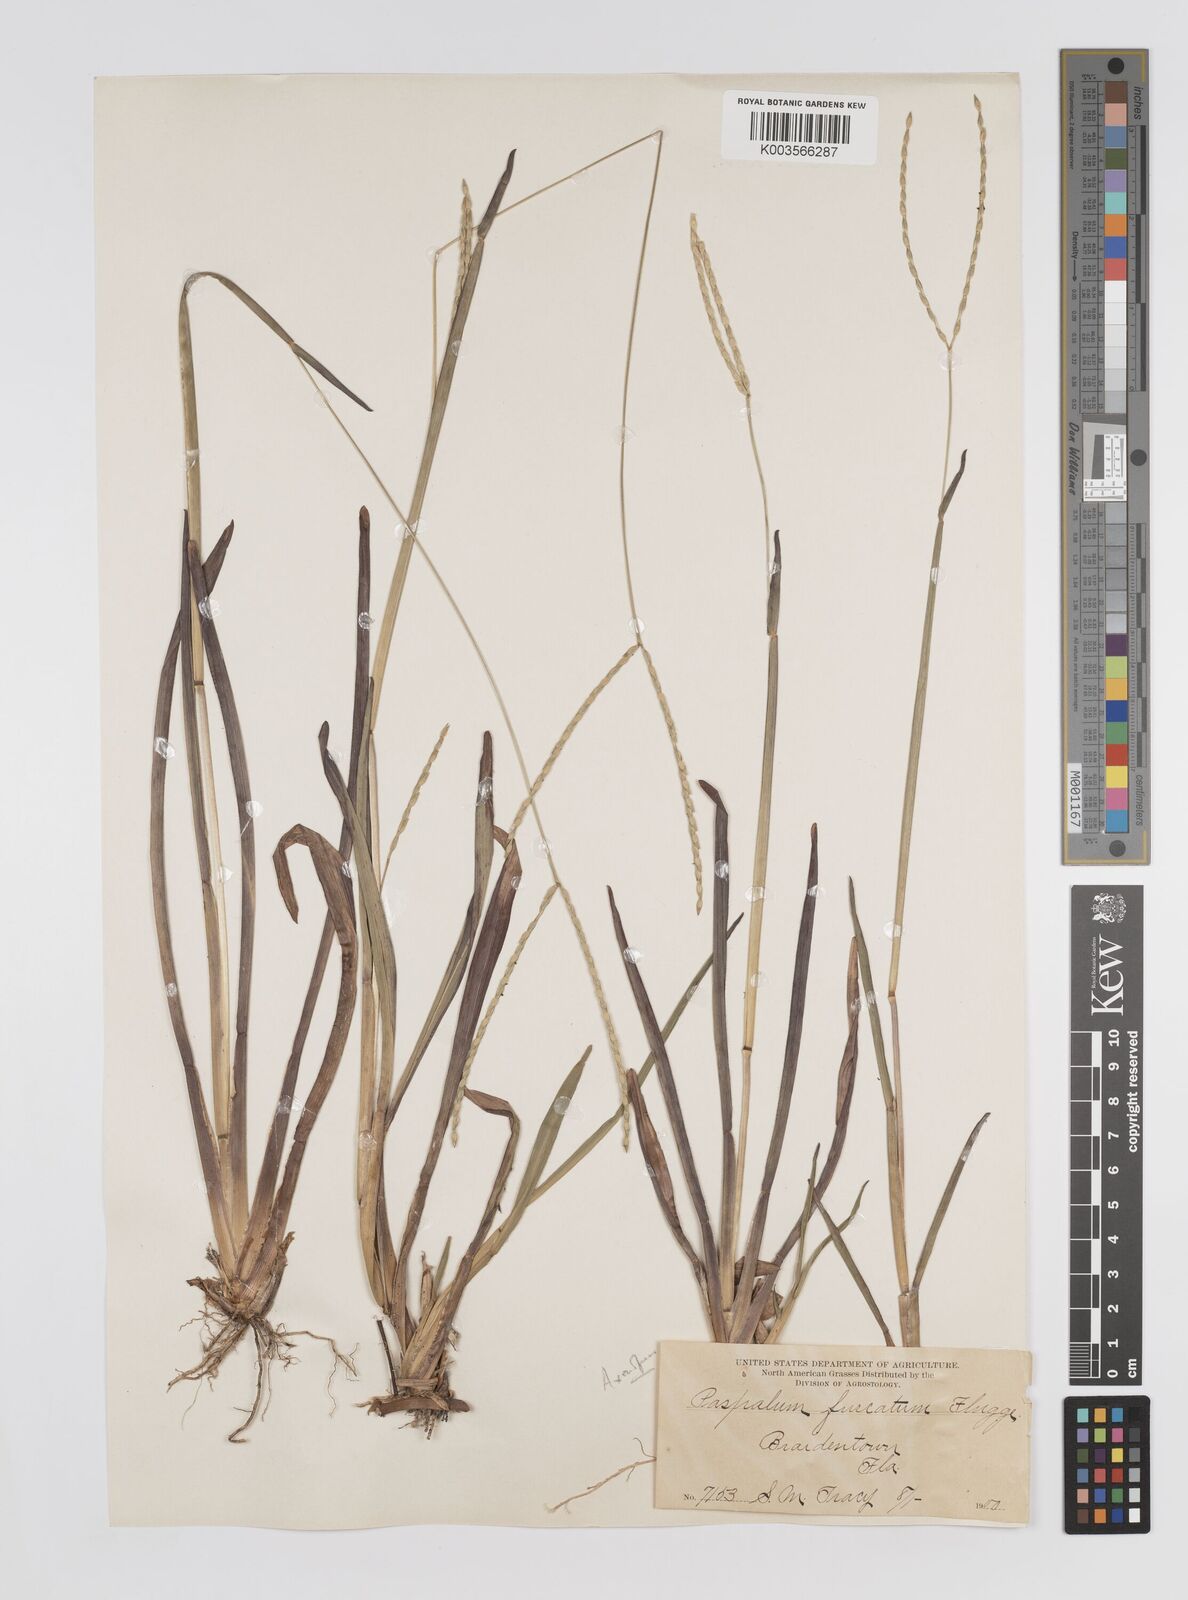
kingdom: Plantae
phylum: Tracheophyta
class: Liliopsida
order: Poales
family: Poaceae
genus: Axonopus
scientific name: Axonopus furcatus
